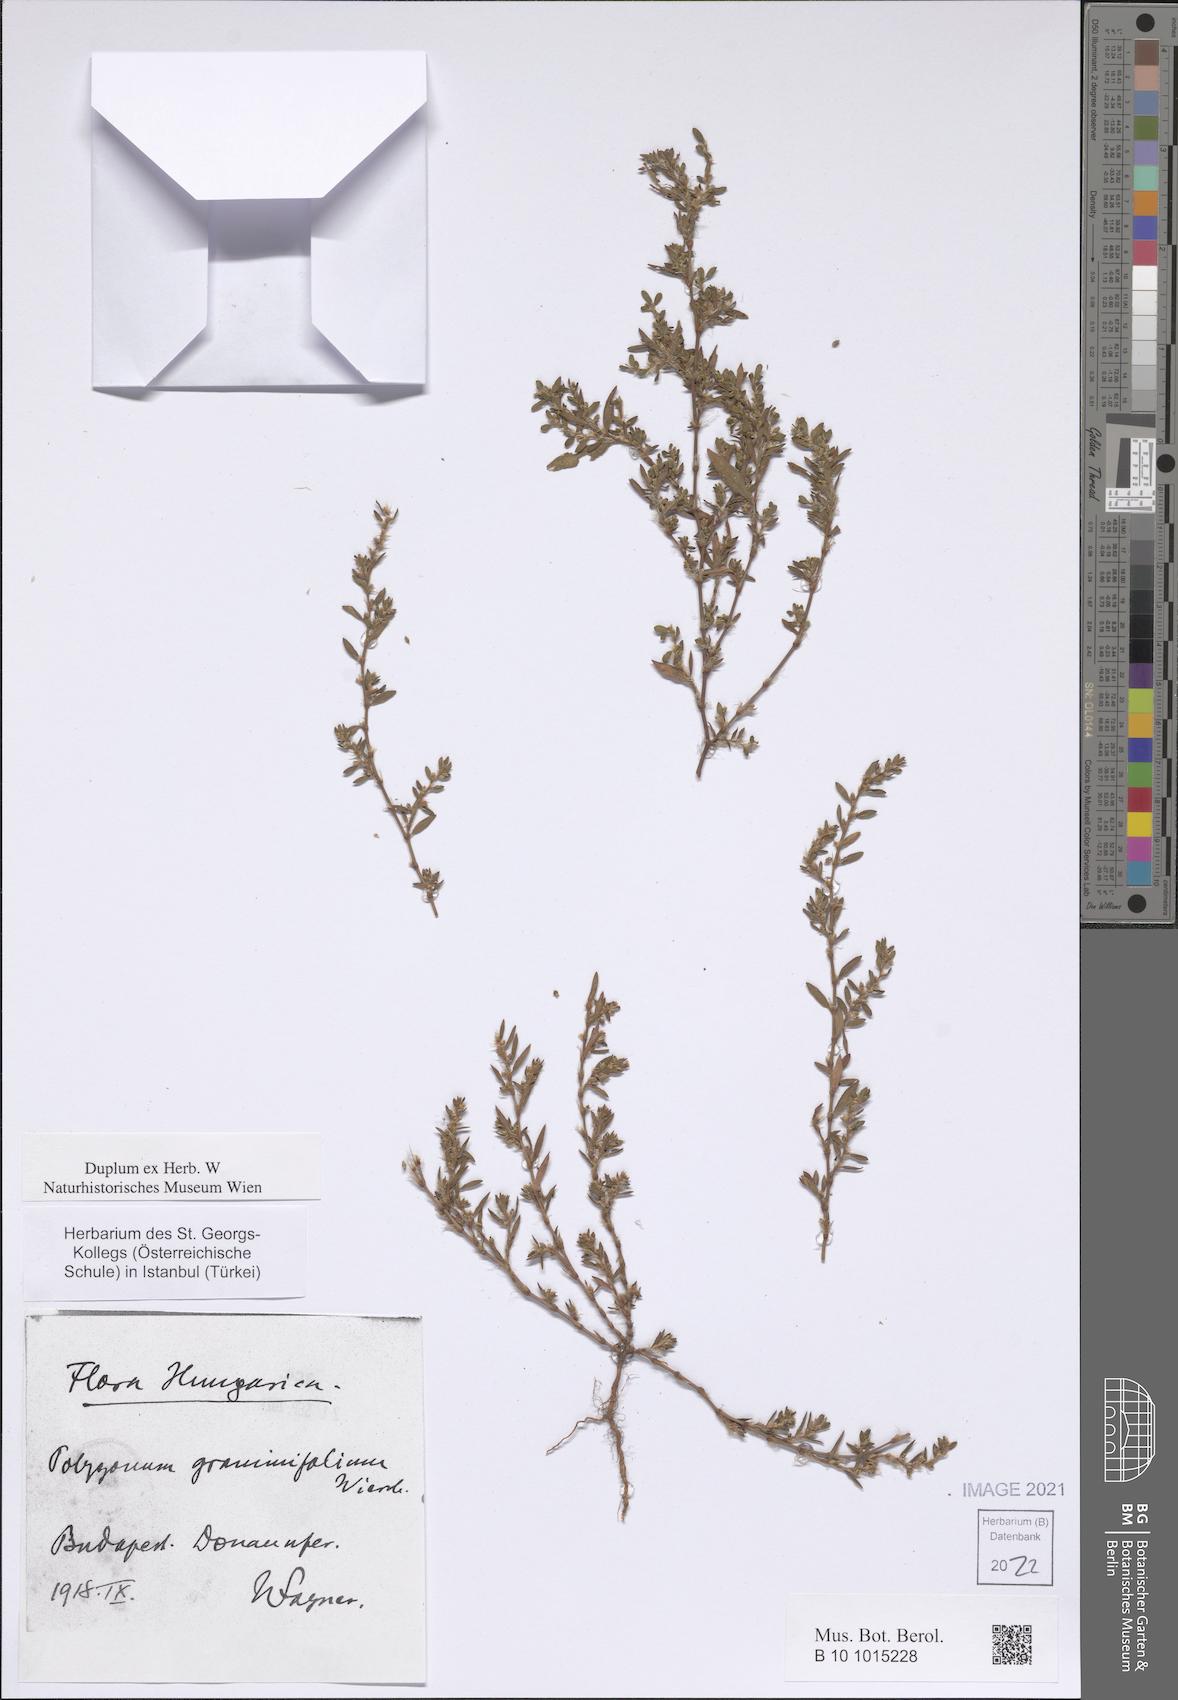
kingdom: Plantae
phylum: Tracheophyta
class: Magnoliopsida
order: Caryophyllales
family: Polygonaceae
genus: Polygonum
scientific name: Polygonum graminifolium
